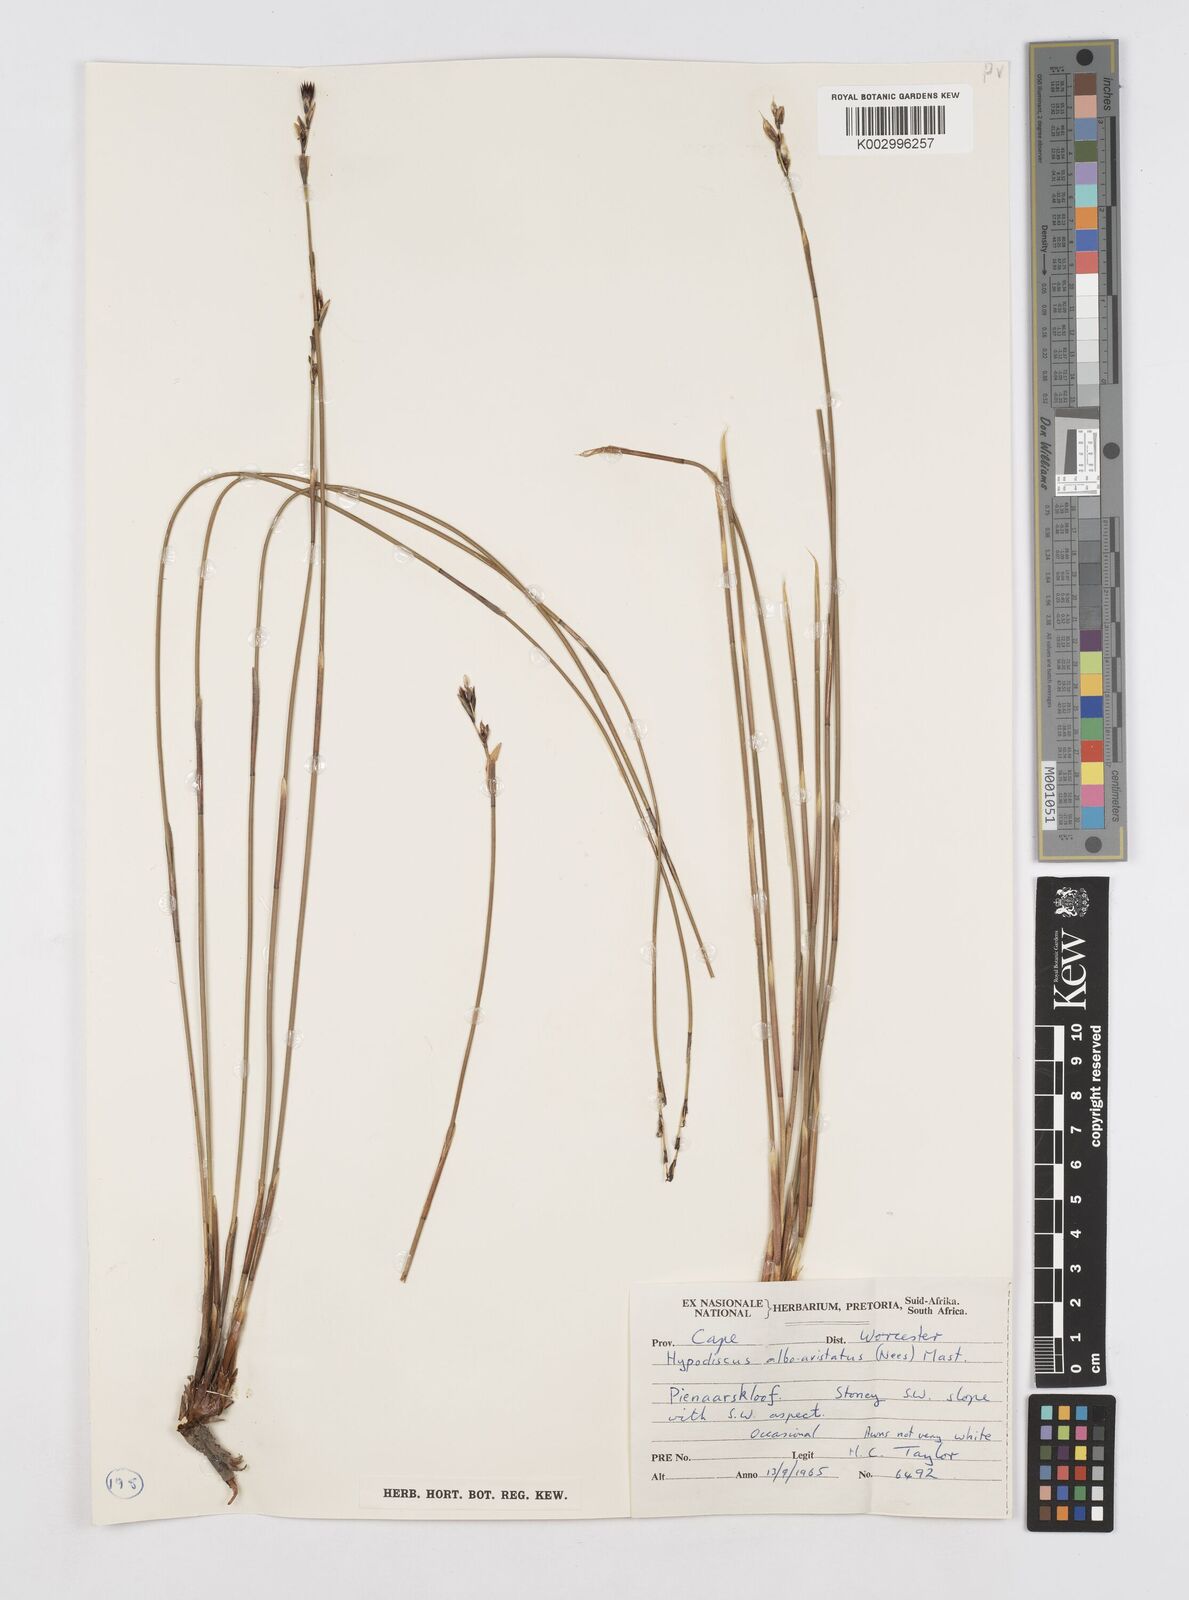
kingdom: Plantae
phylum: Tracheophyta
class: Liliopsida
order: Poales
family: Restionaceae
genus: Hypodiscus
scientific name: Hypodiscus alboaristatus
